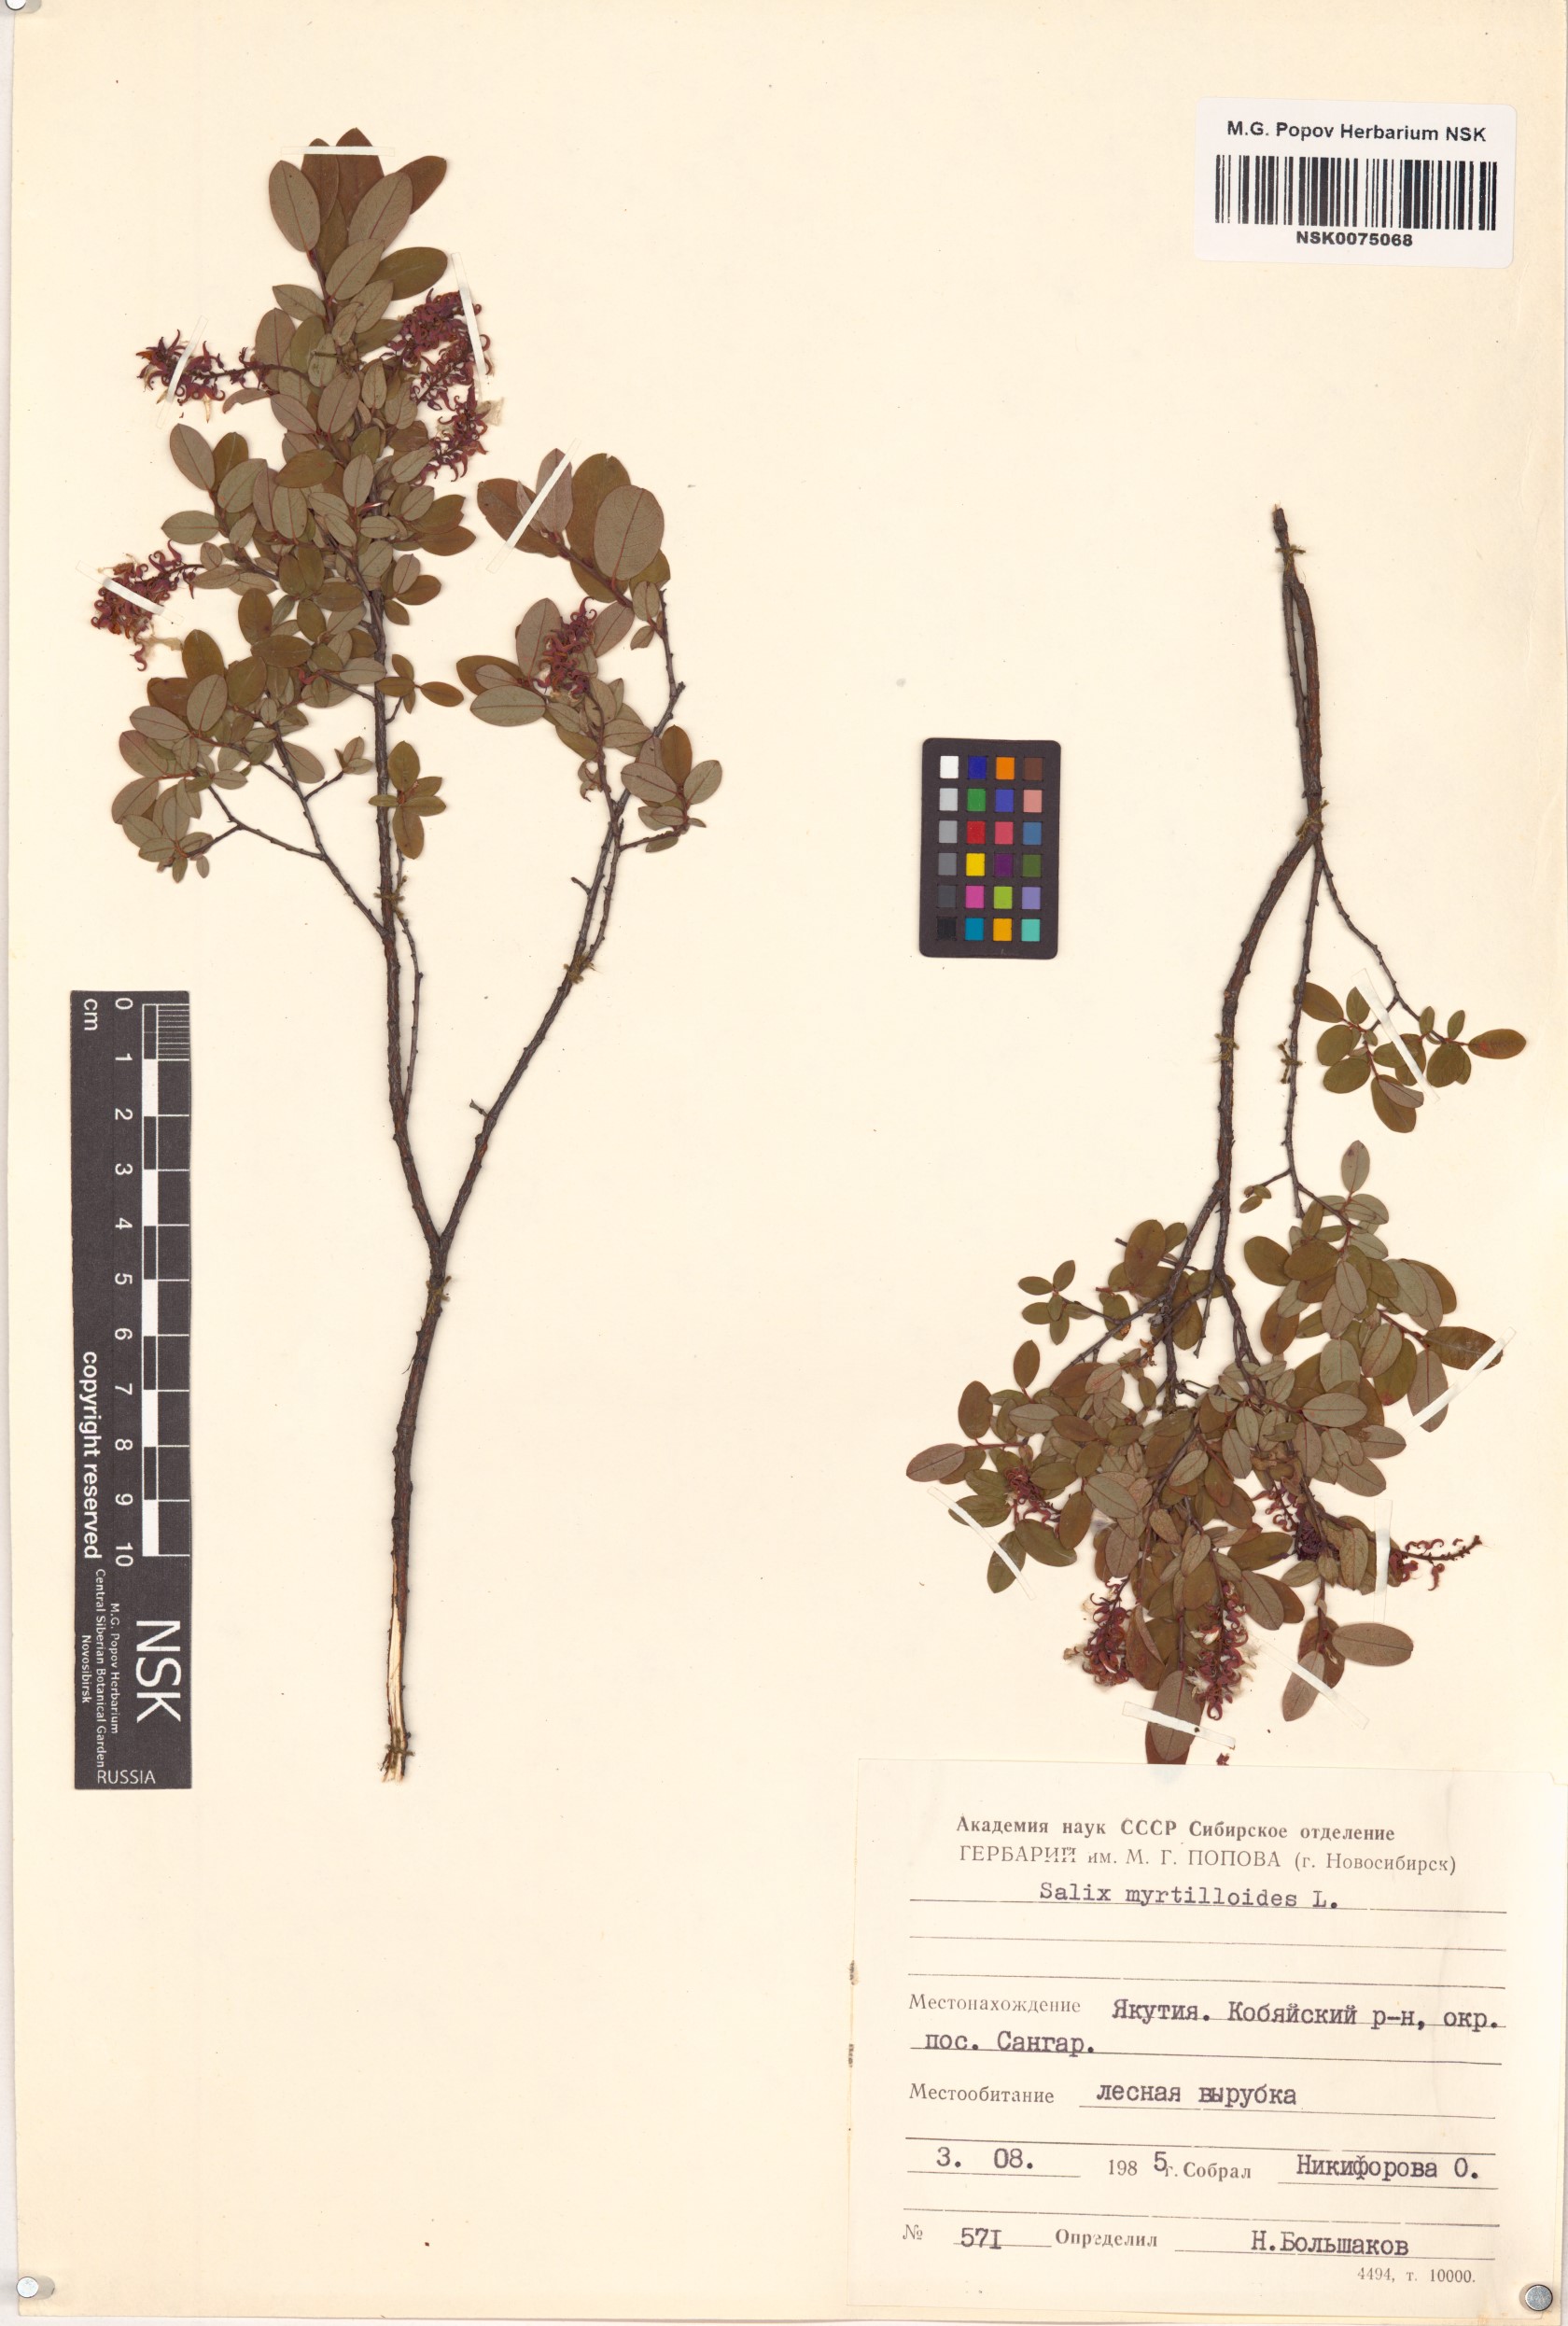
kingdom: Plantae
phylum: Tracheophyta
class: Magnoliopsida
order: Malpighiales
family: Salicaceae
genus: Salix
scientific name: Salix myrtilloides
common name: Myrtle-leaved willow
